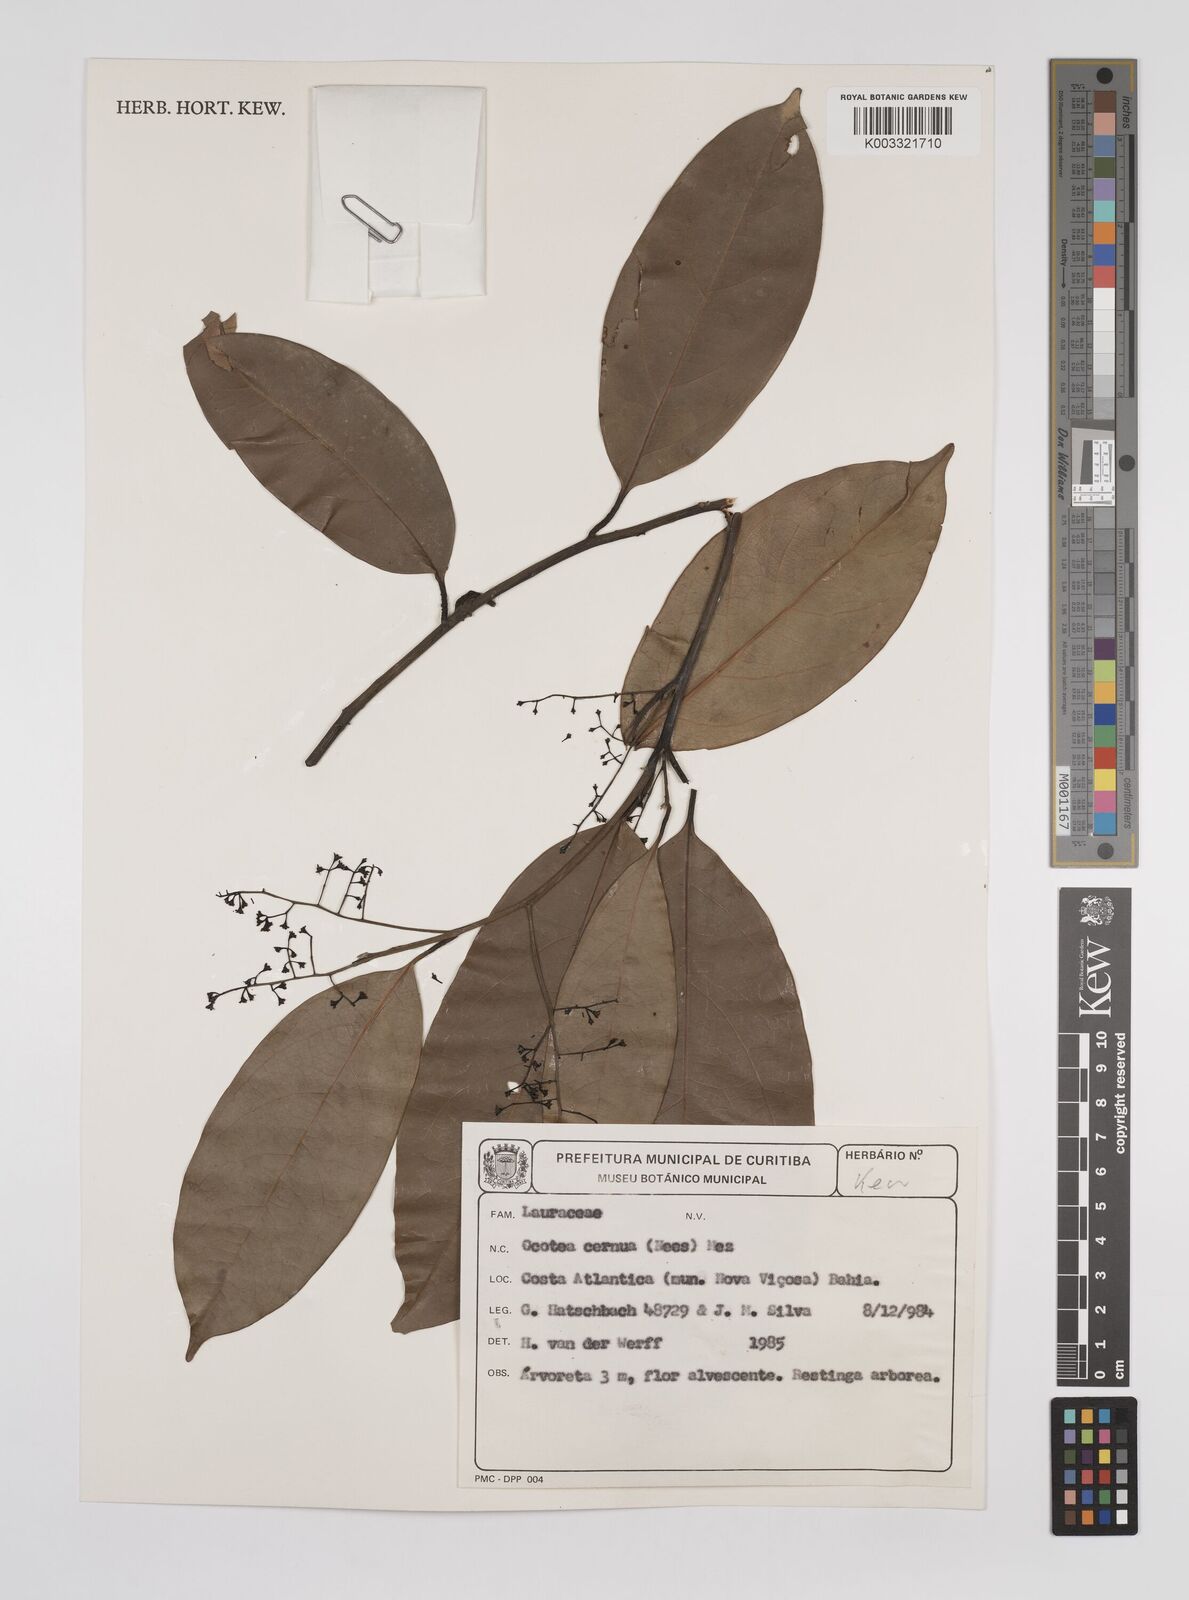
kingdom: Plantae
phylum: Tracheophyta
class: Magnoliopsida
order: Laurales
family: Lauraceae
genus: Ocotea
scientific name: Ocotea leptobotra
